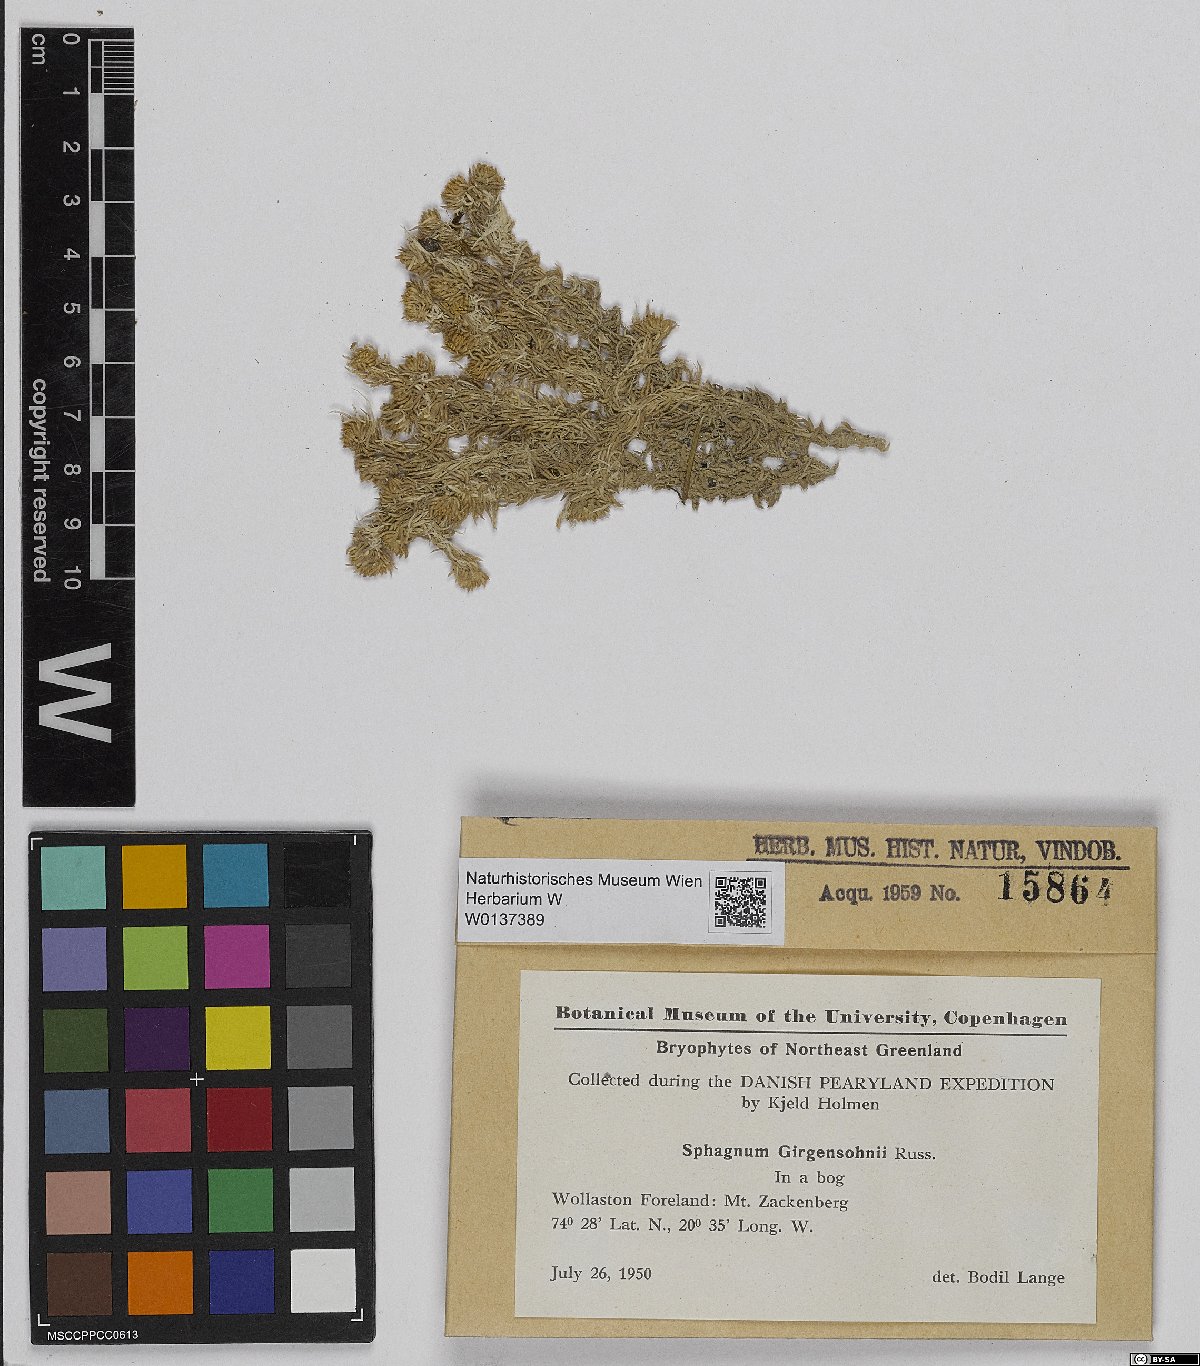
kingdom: Plantae
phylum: Bryophyta
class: Sphagnopsida
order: Sphagnales
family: Sphagnaceae
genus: Sphagnum
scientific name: Sphagnum girgensohnii
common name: Girgensohn's peat moss
